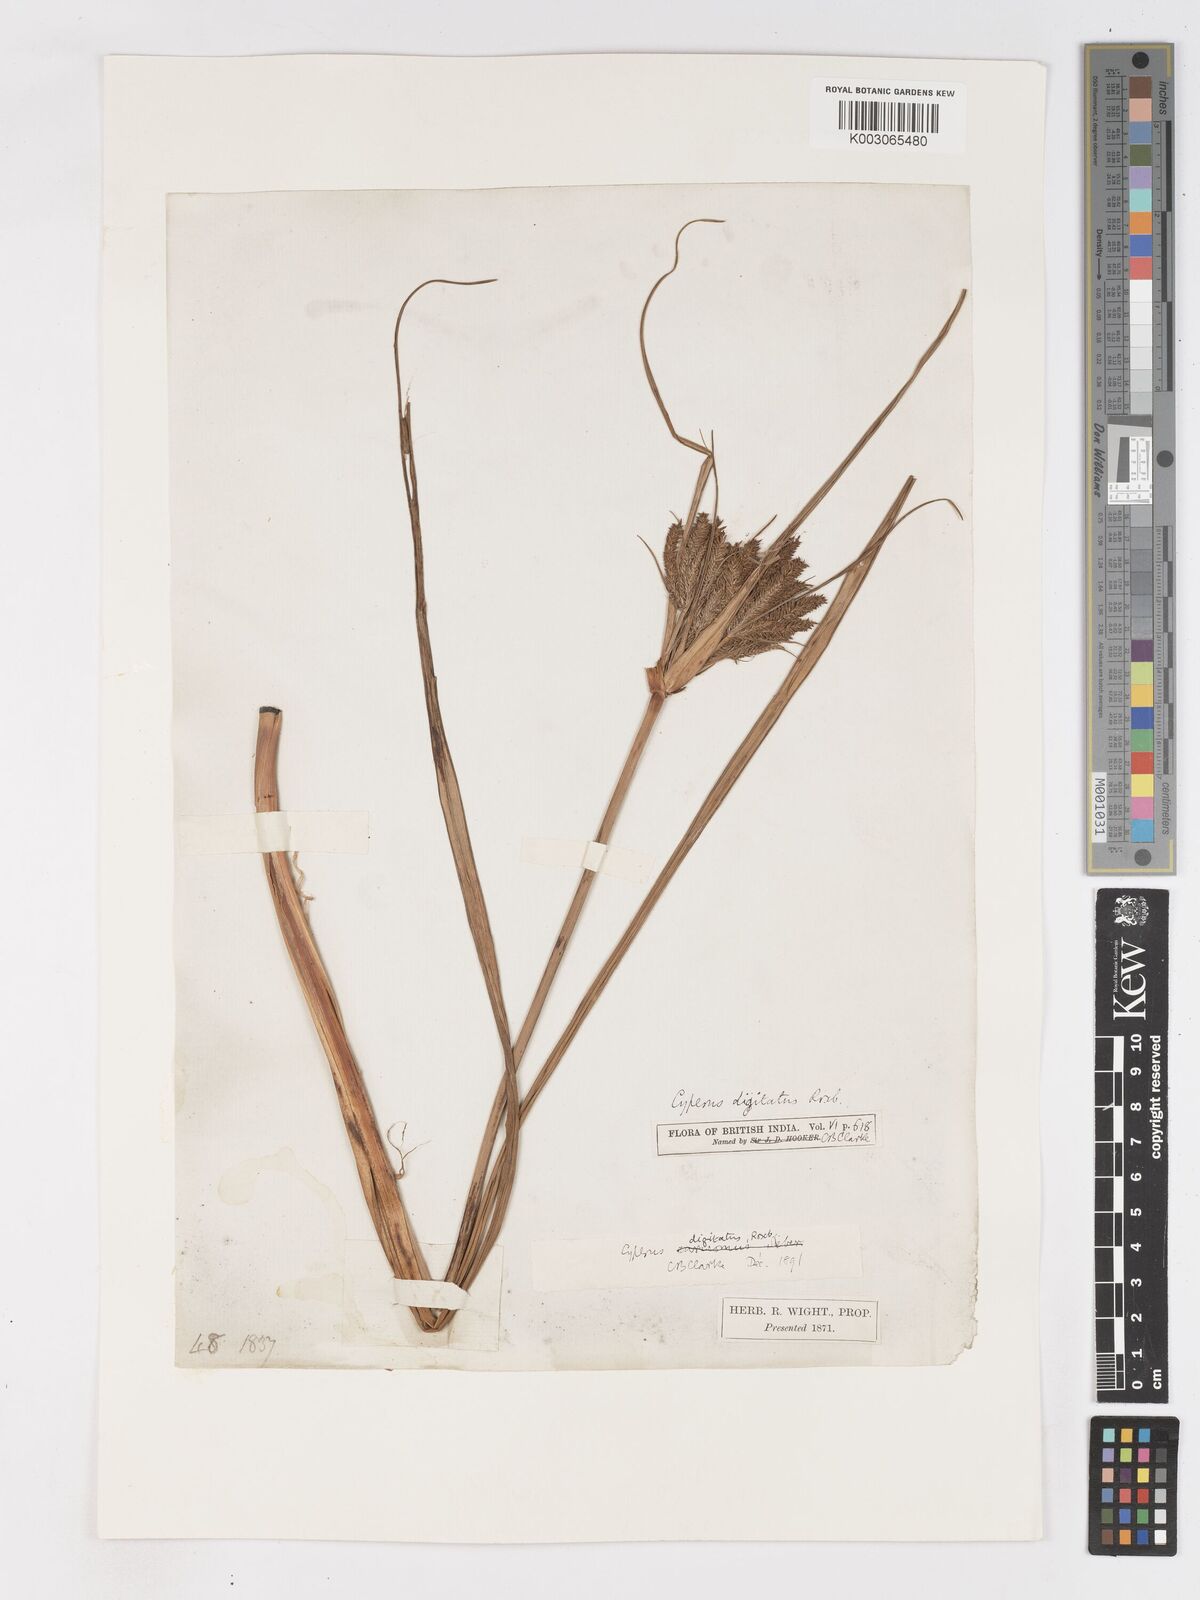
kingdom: Plantae
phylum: Tracheophyta
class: Liliopsida
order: Poales
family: Cyperaceae
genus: Cyperus
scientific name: Cyperus digitatus
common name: Finger flatsedge
